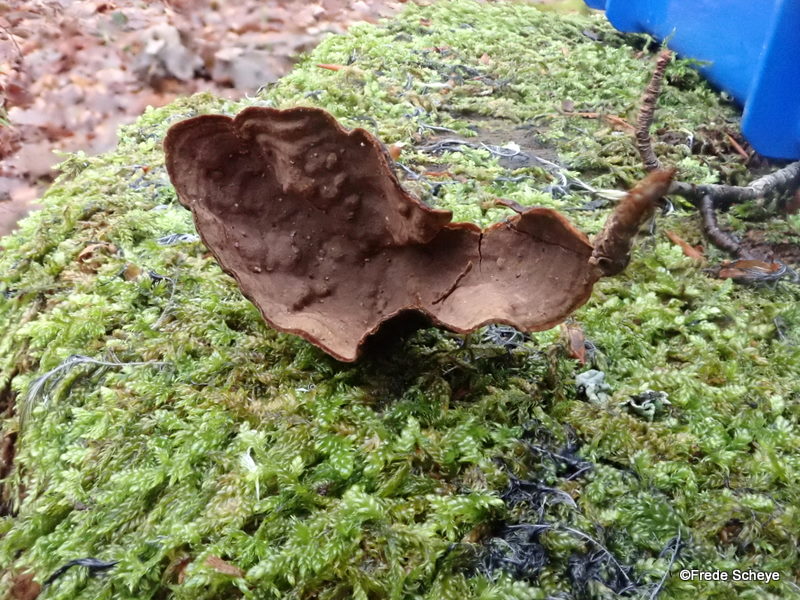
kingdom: Fungi
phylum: Basidiomycota
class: Agaricomycetes
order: Hymenochaetales
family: Hymenochaetaceae
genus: Hymenochaete
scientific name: Hymenochaete rubiginosa
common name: stiv ruslædersvamp
